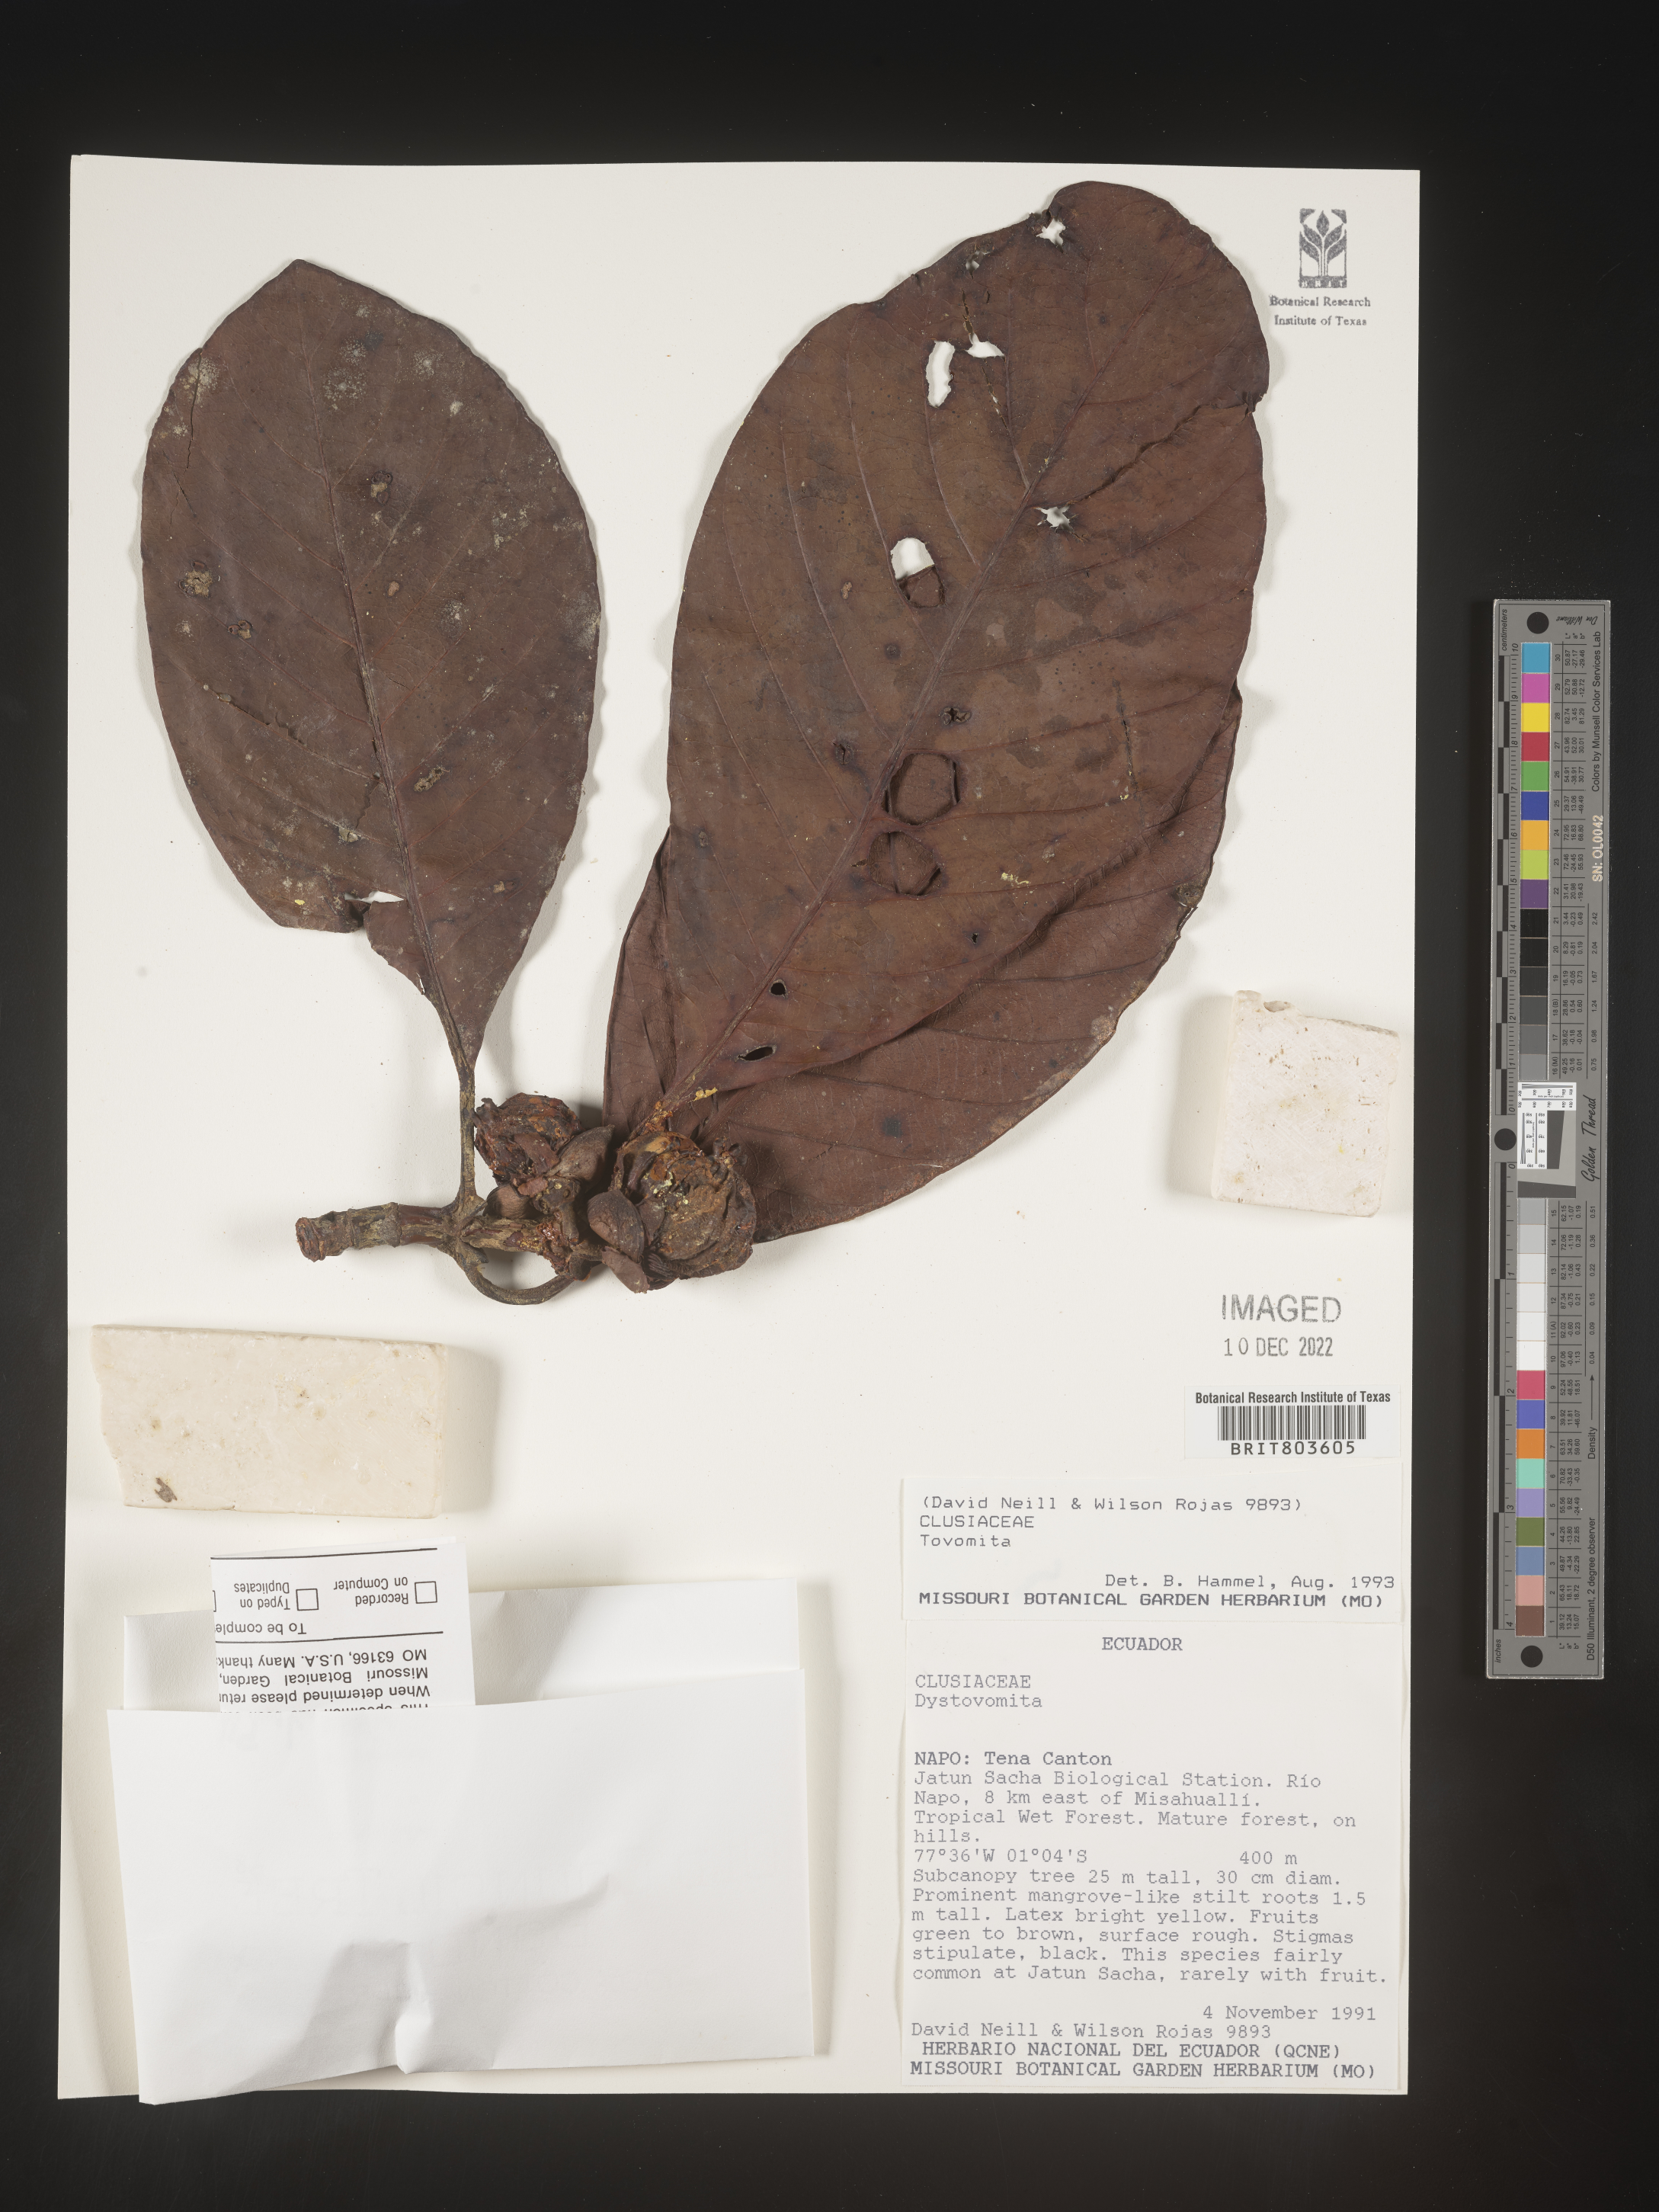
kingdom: Plantae
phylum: Tracheophyta
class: Magnoliopsida
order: Malpighiales
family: Clusiaceae
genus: Tovomita
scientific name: Tovomita
